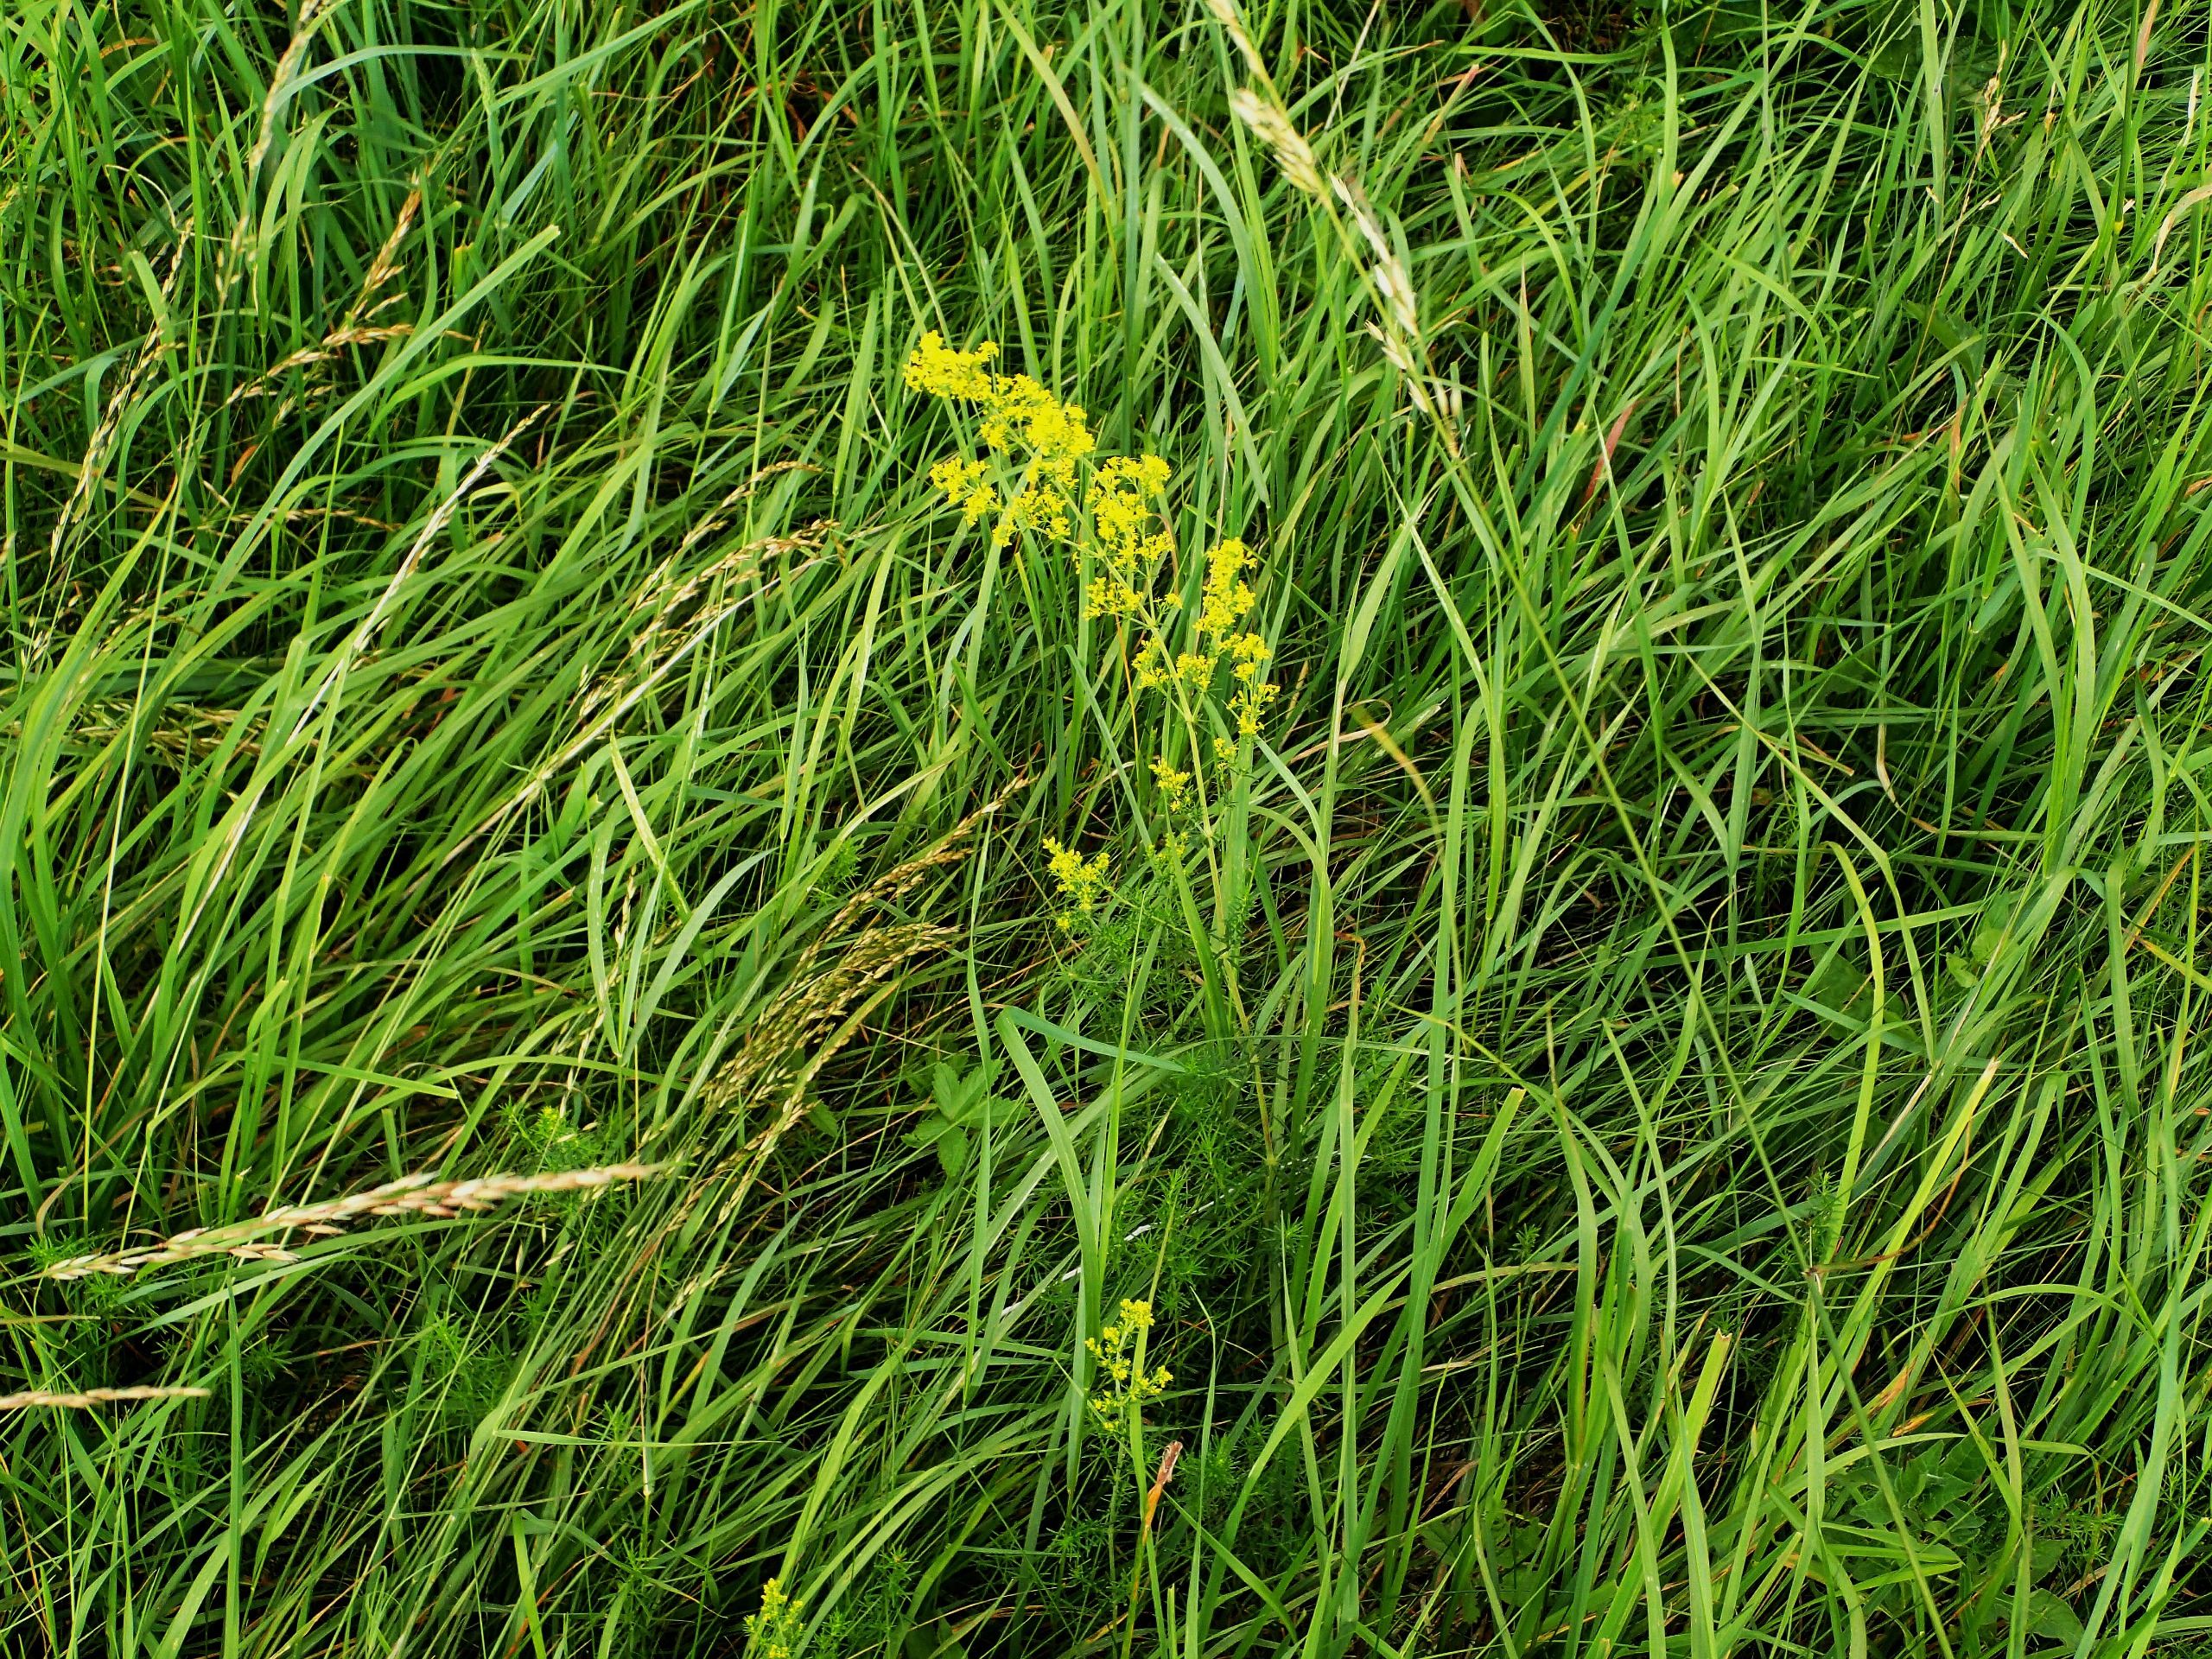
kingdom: Plantae
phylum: Tracheophyta
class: Magnoliopsida
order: Gentianales
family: Rubiaceae
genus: Galium
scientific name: Galium verum
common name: Gul snerre
